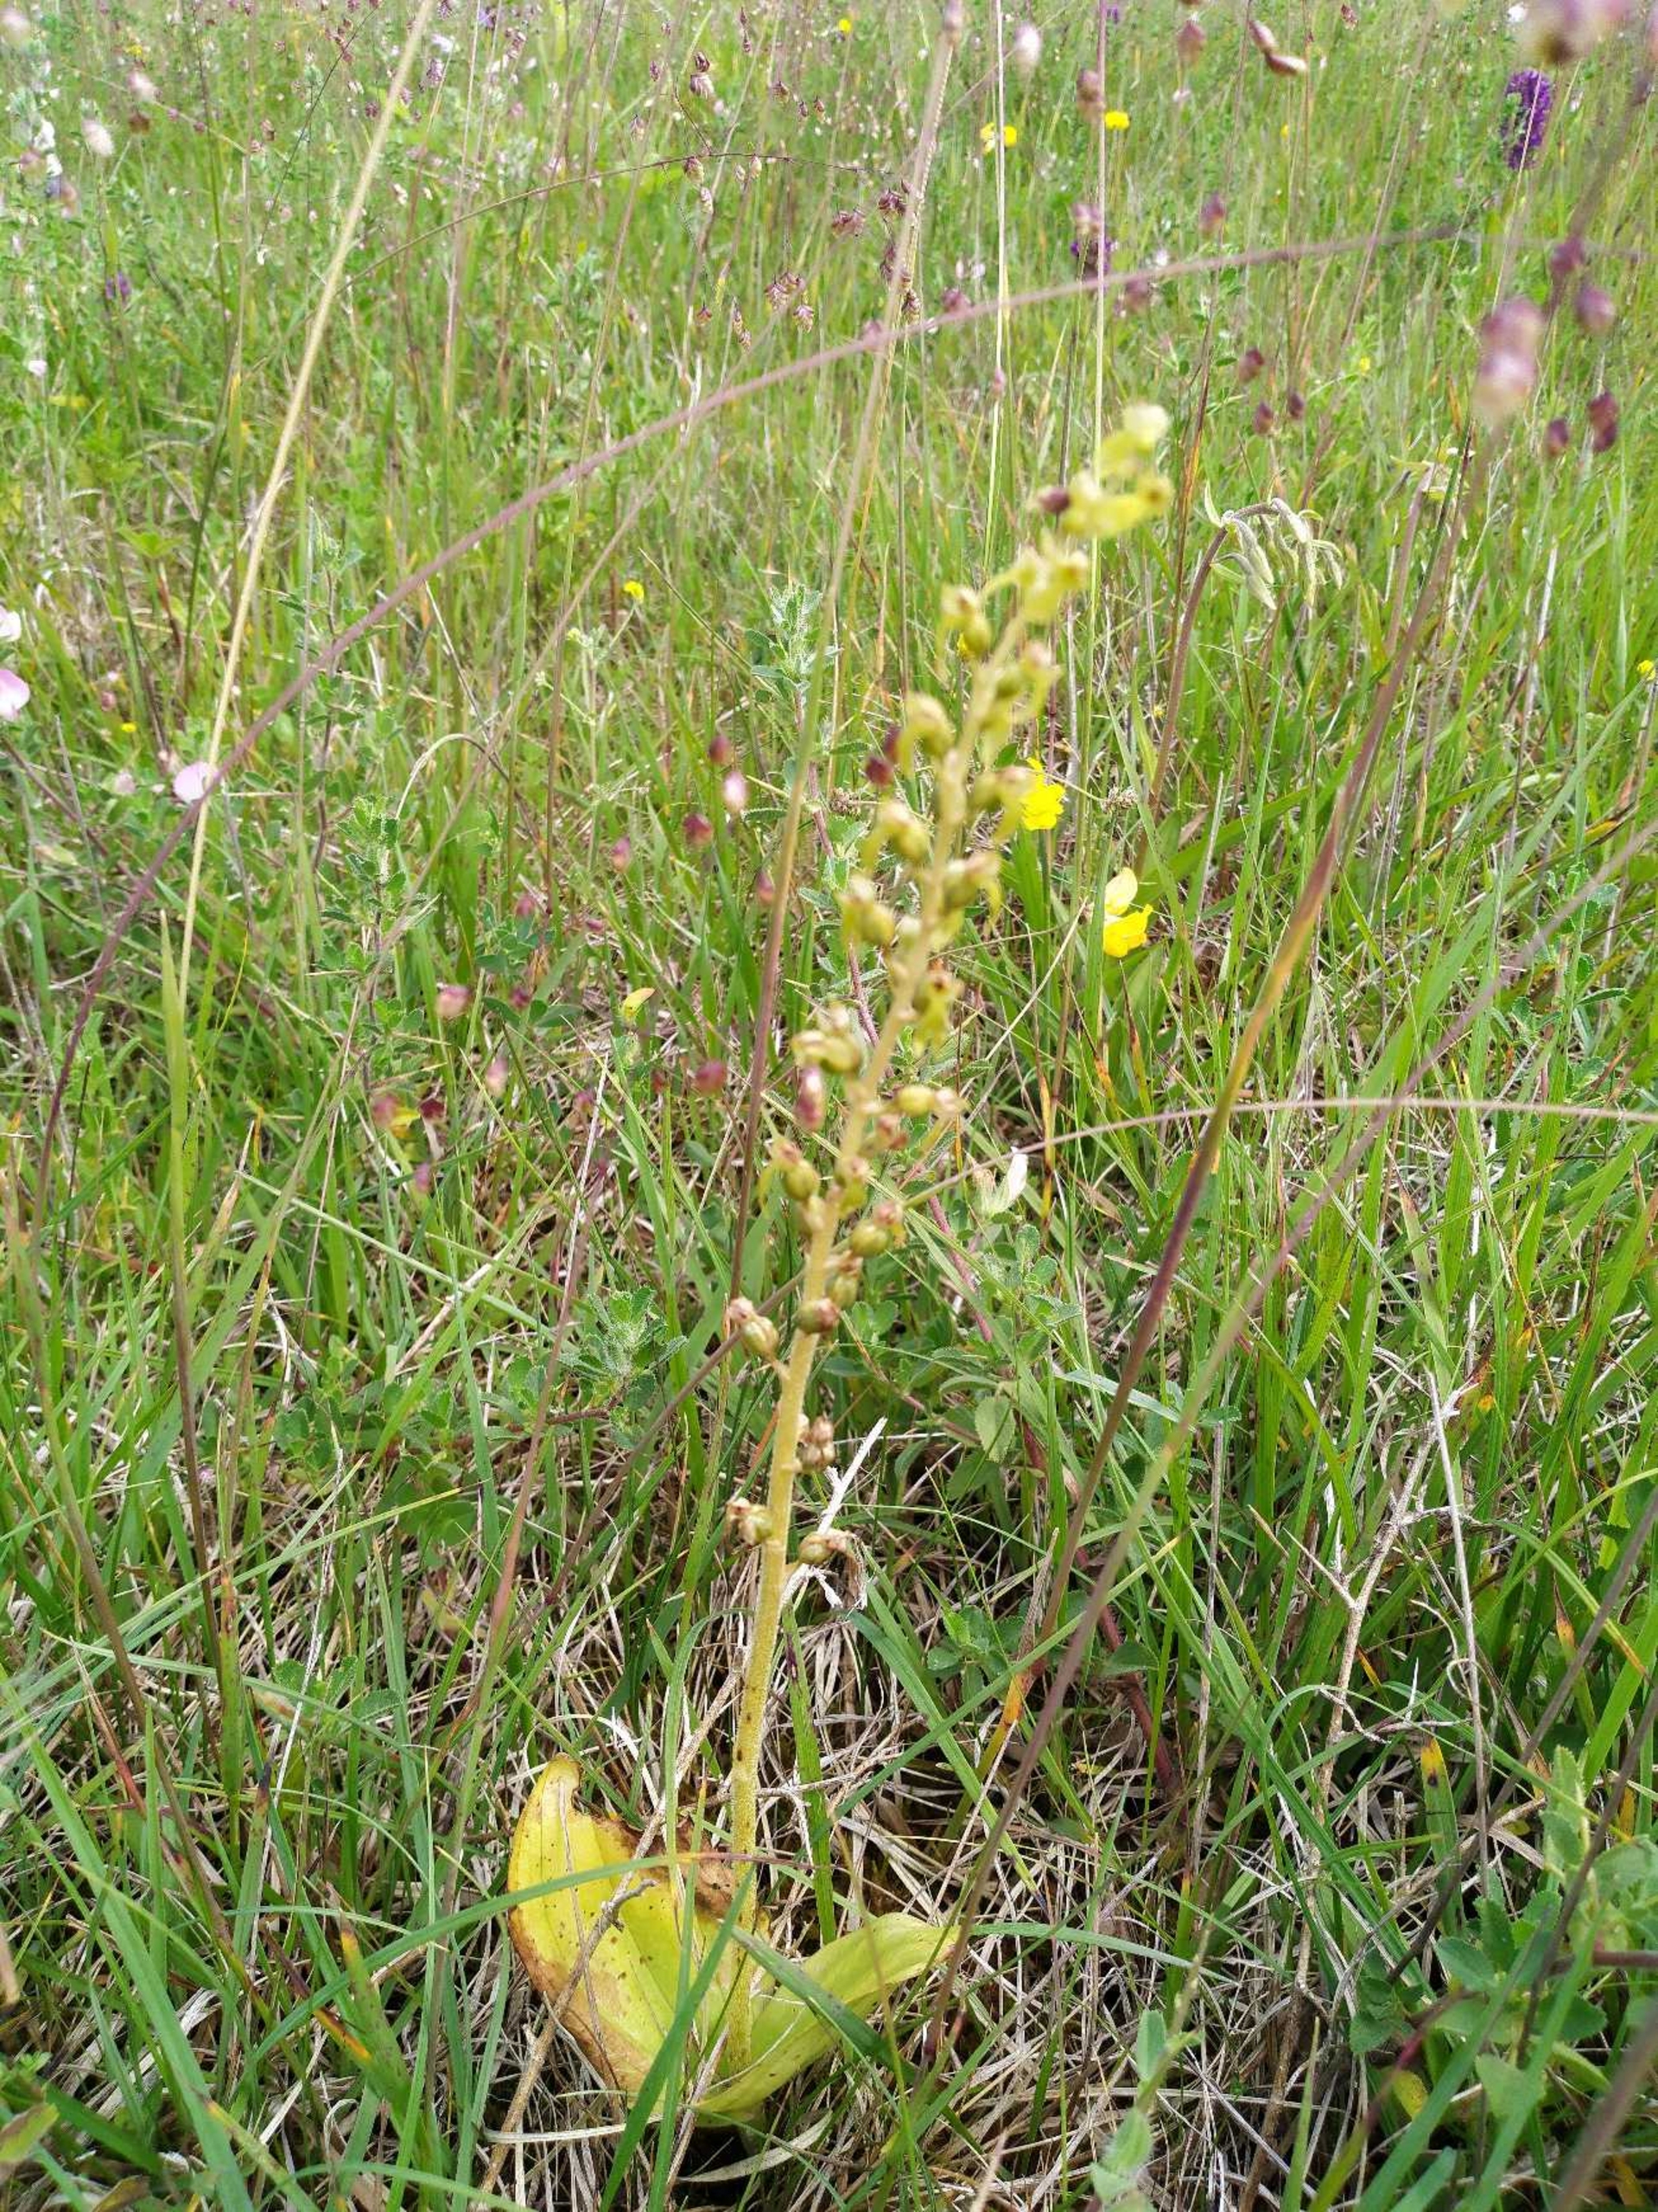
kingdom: Plantae
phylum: Tracheophyta
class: Liliopsida
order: Asparagales
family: Orchidaceae
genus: Neottia
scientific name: Neottia ovata
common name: Ægbladet fliglæbe
